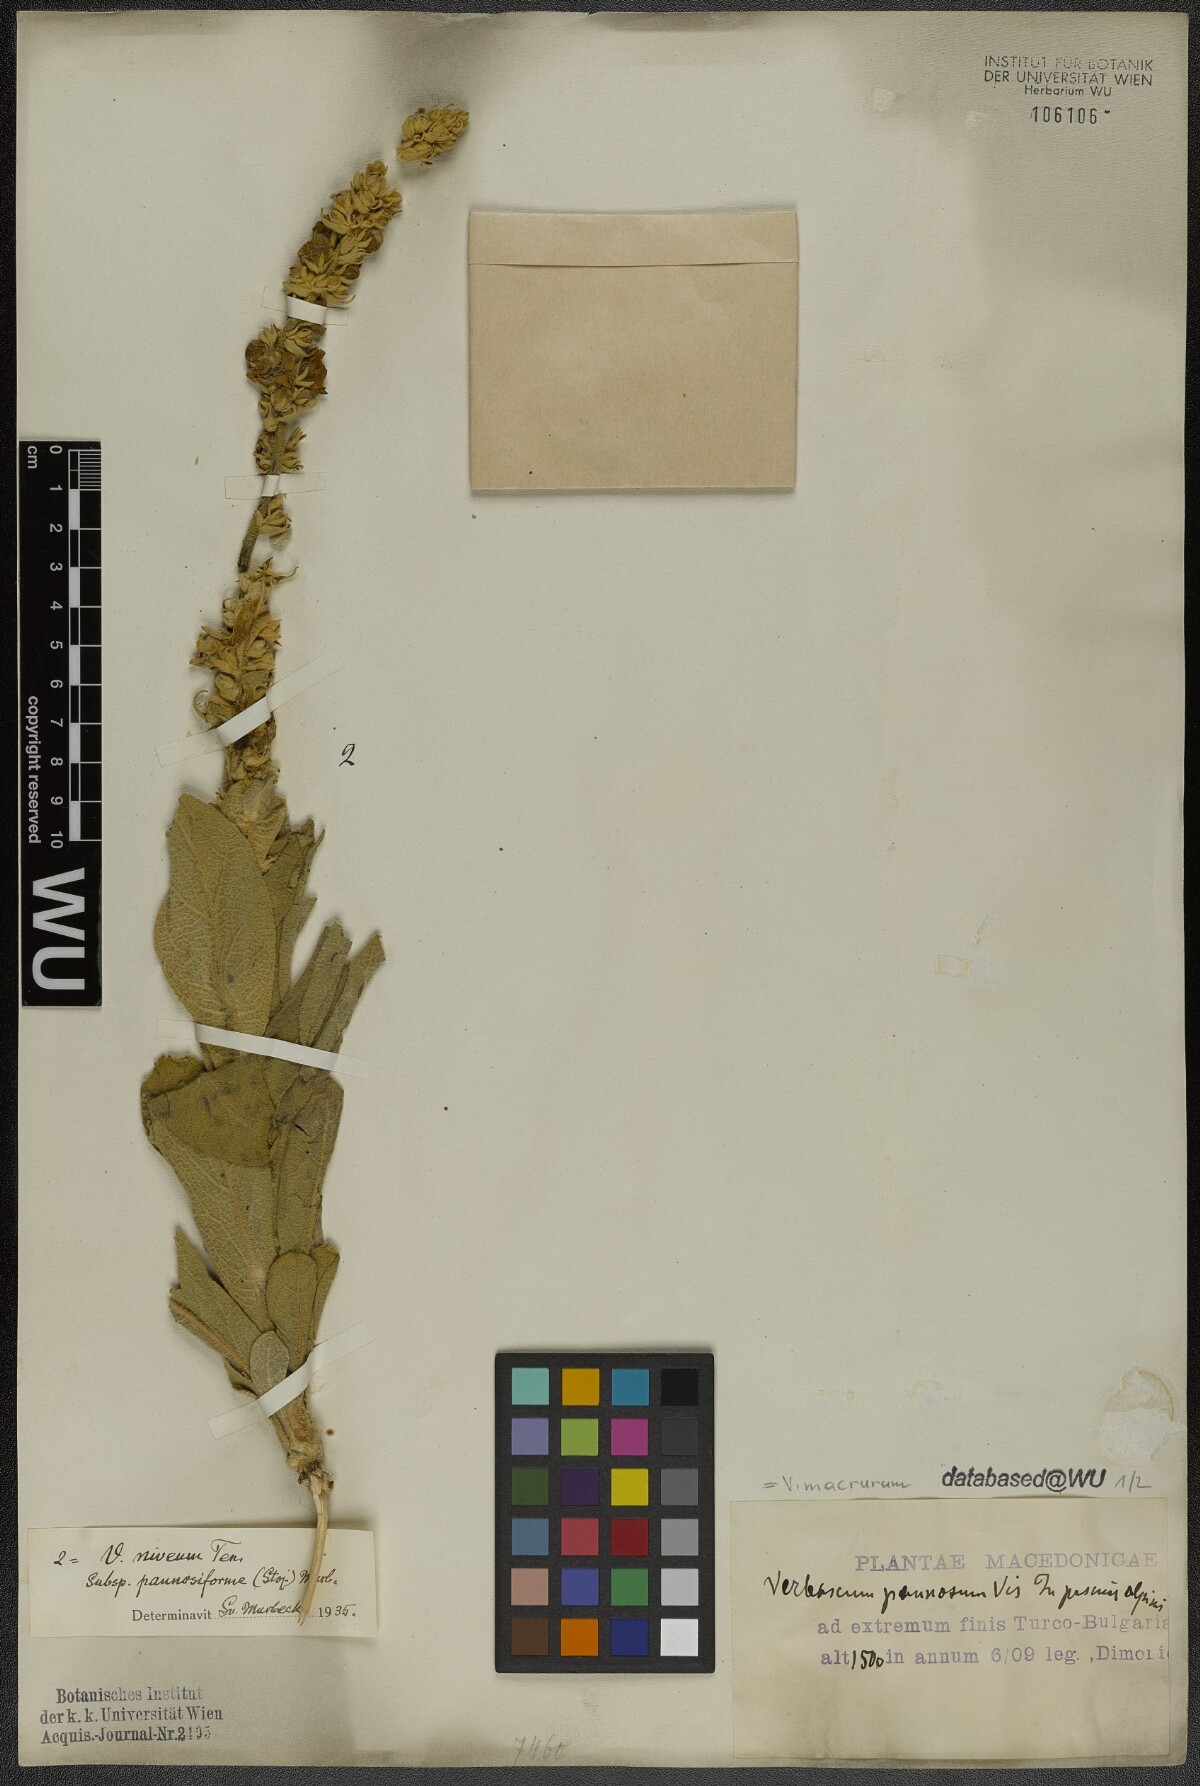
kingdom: Plantae
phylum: Tracheophyta
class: Magnoliopsida
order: Lamiales
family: Scrophulariaceae
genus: Verbascum
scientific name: Verbascum macrurum
